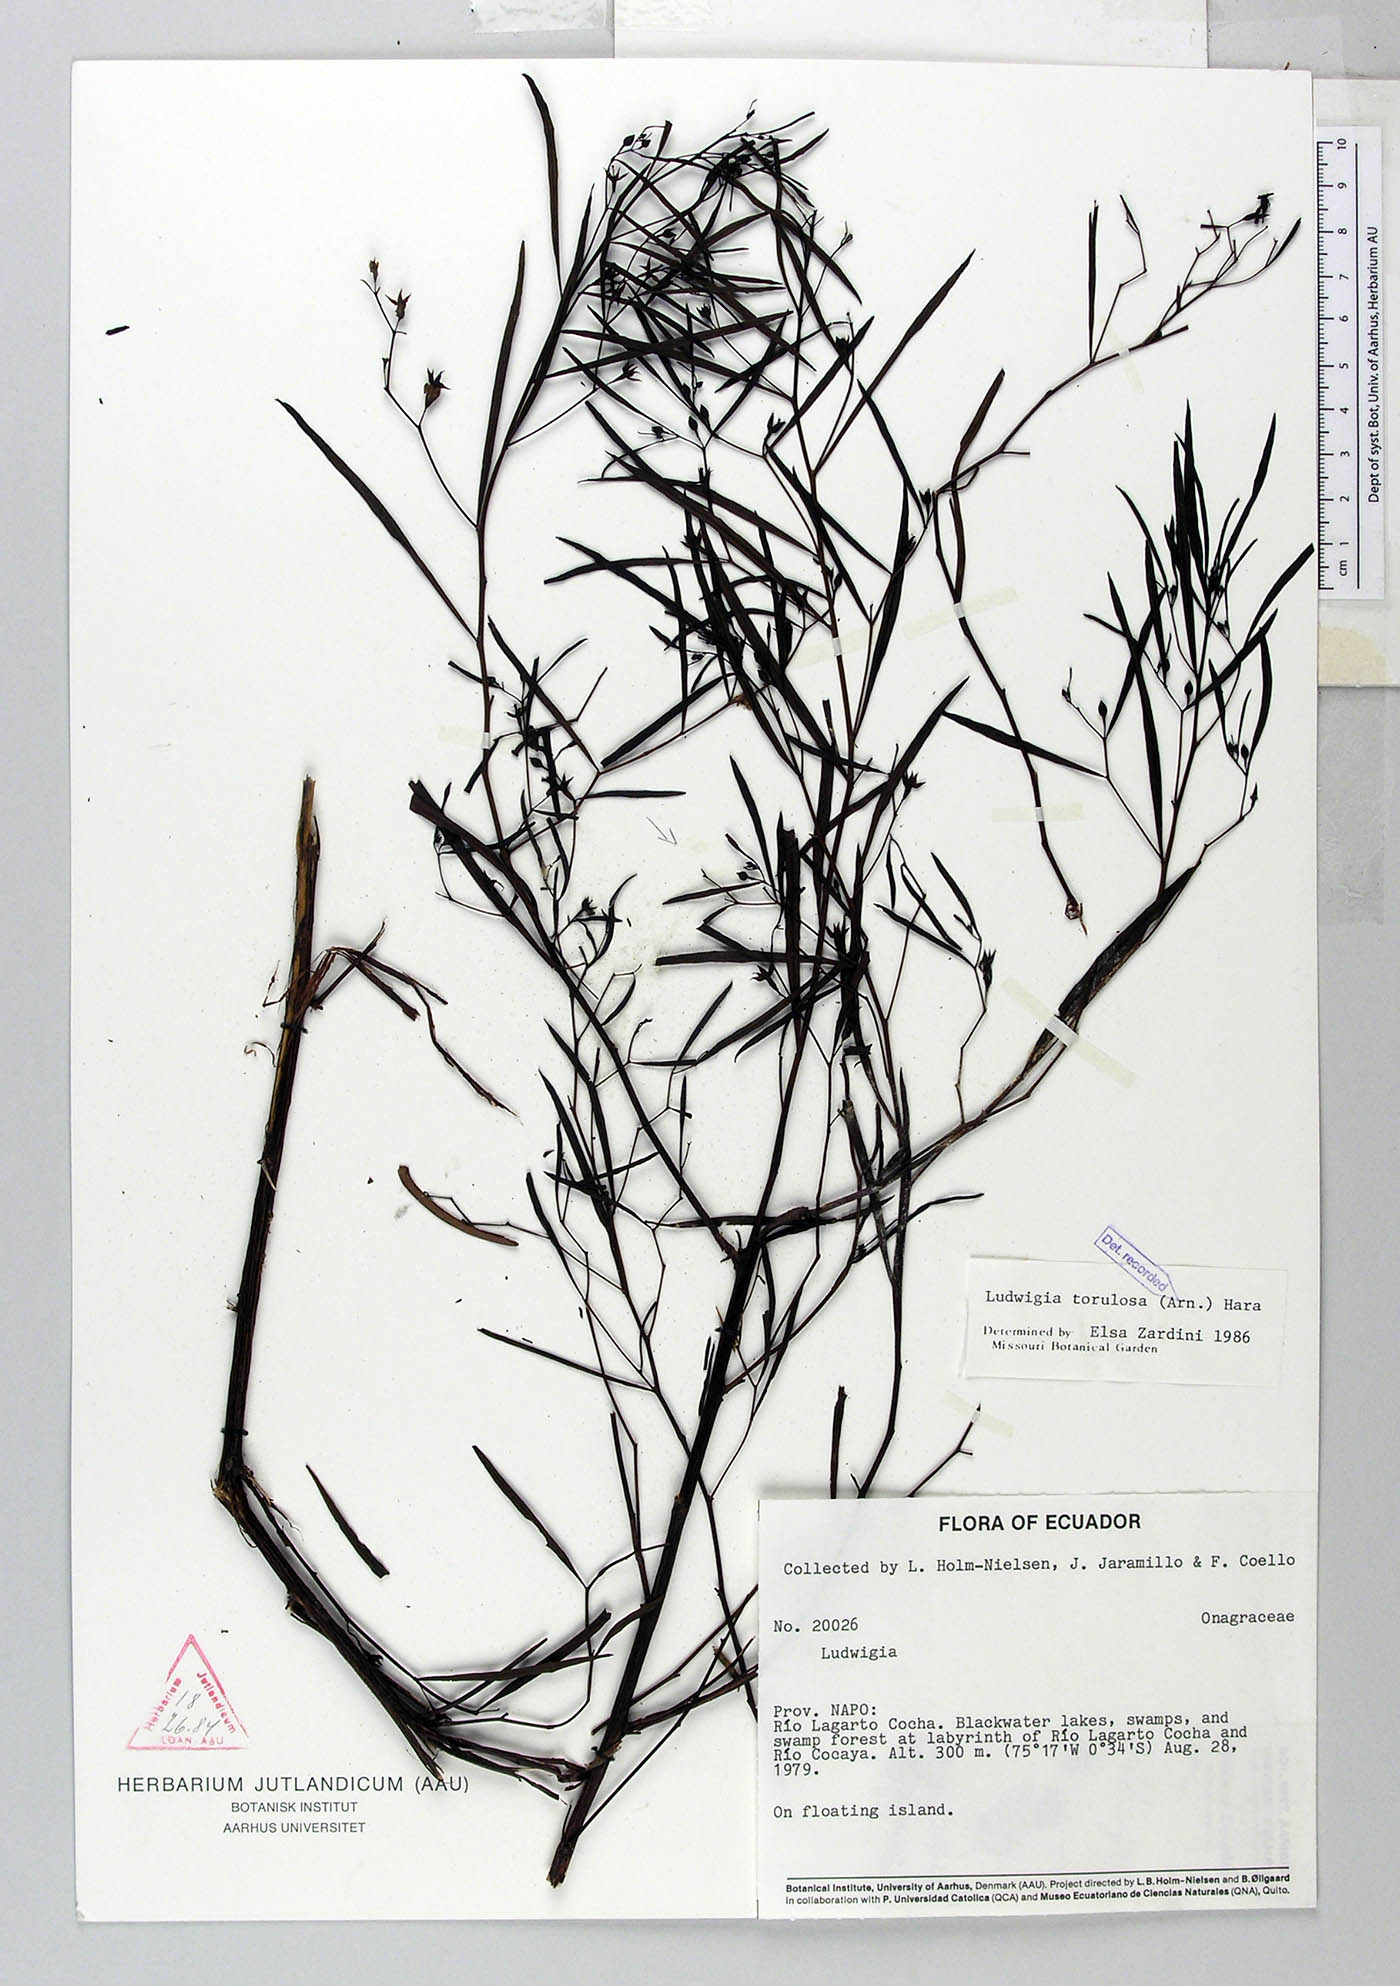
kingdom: Plantae
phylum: Tracheophyta
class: Magnoliopsida
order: Myrtales
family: Onagraceae
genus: Ludwigia
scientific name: Ludwigia torulosa
